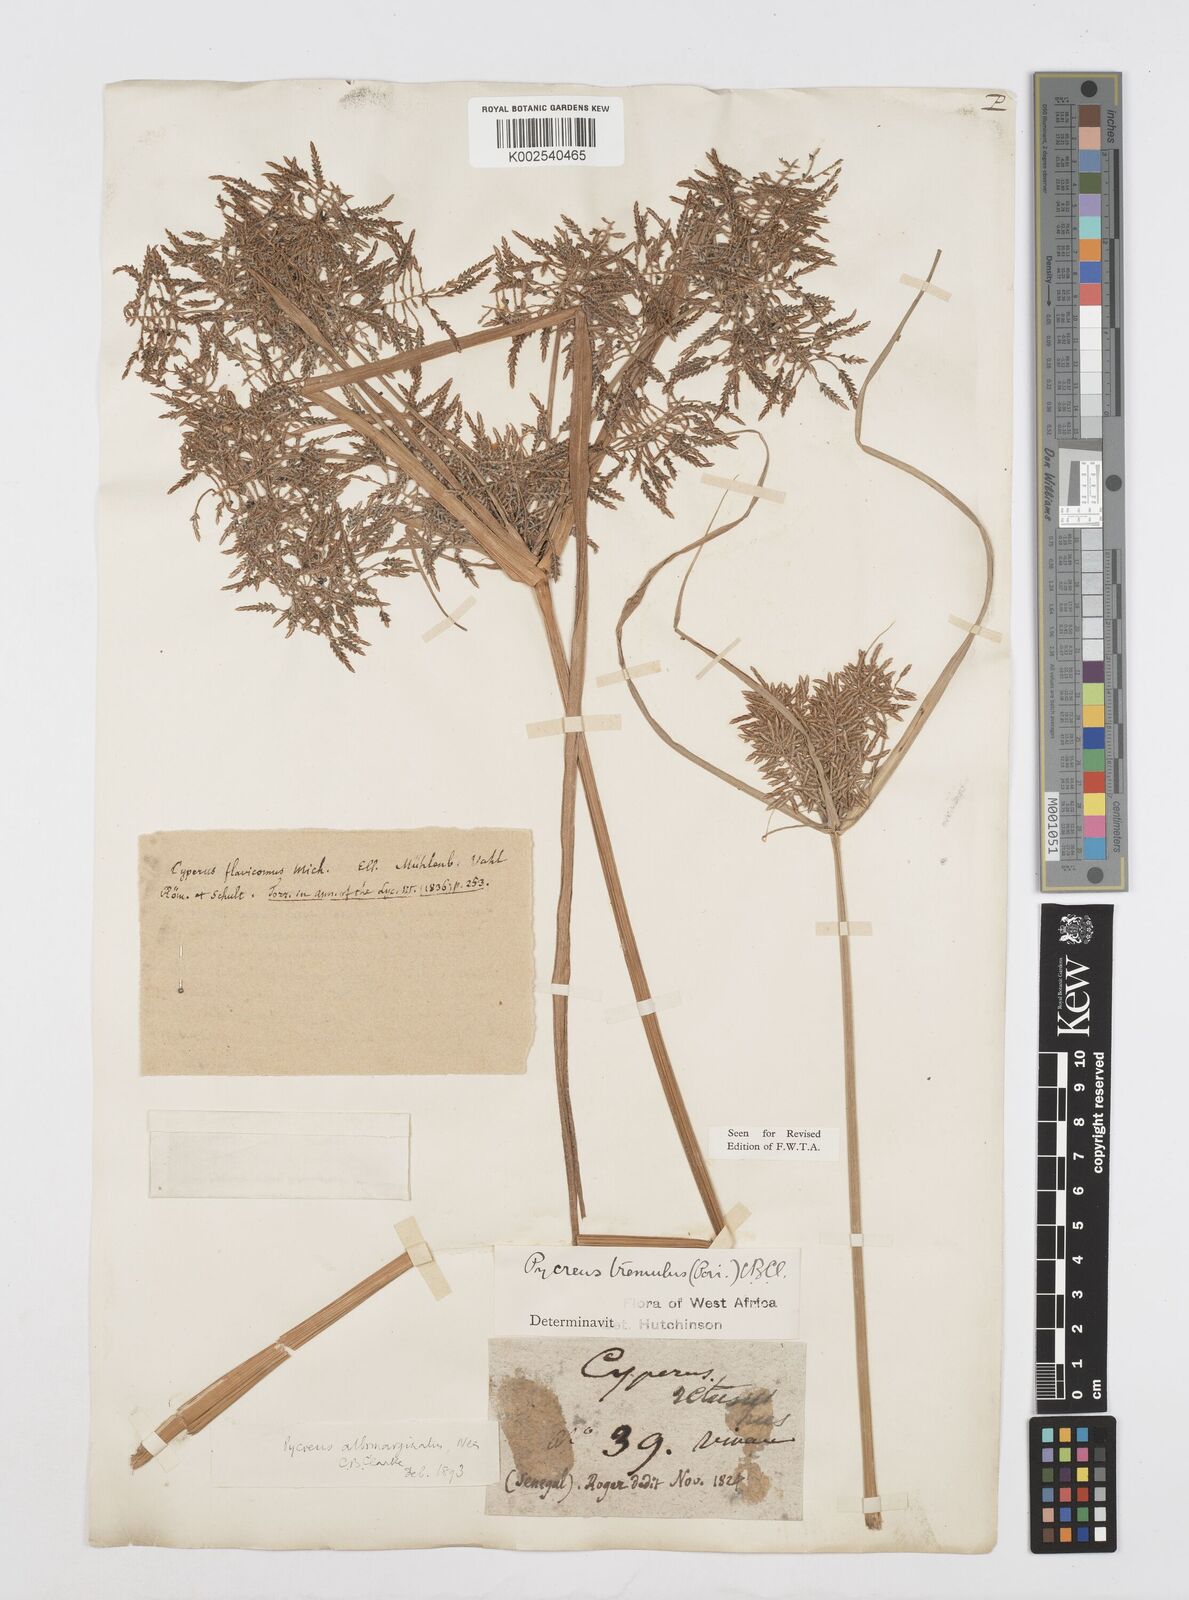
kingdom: Plantae
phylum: Tracheophyta
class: Liliopsida
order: Poales
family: Cyperaceae
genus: Cyperus
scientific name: Cyperus macrostachyos
